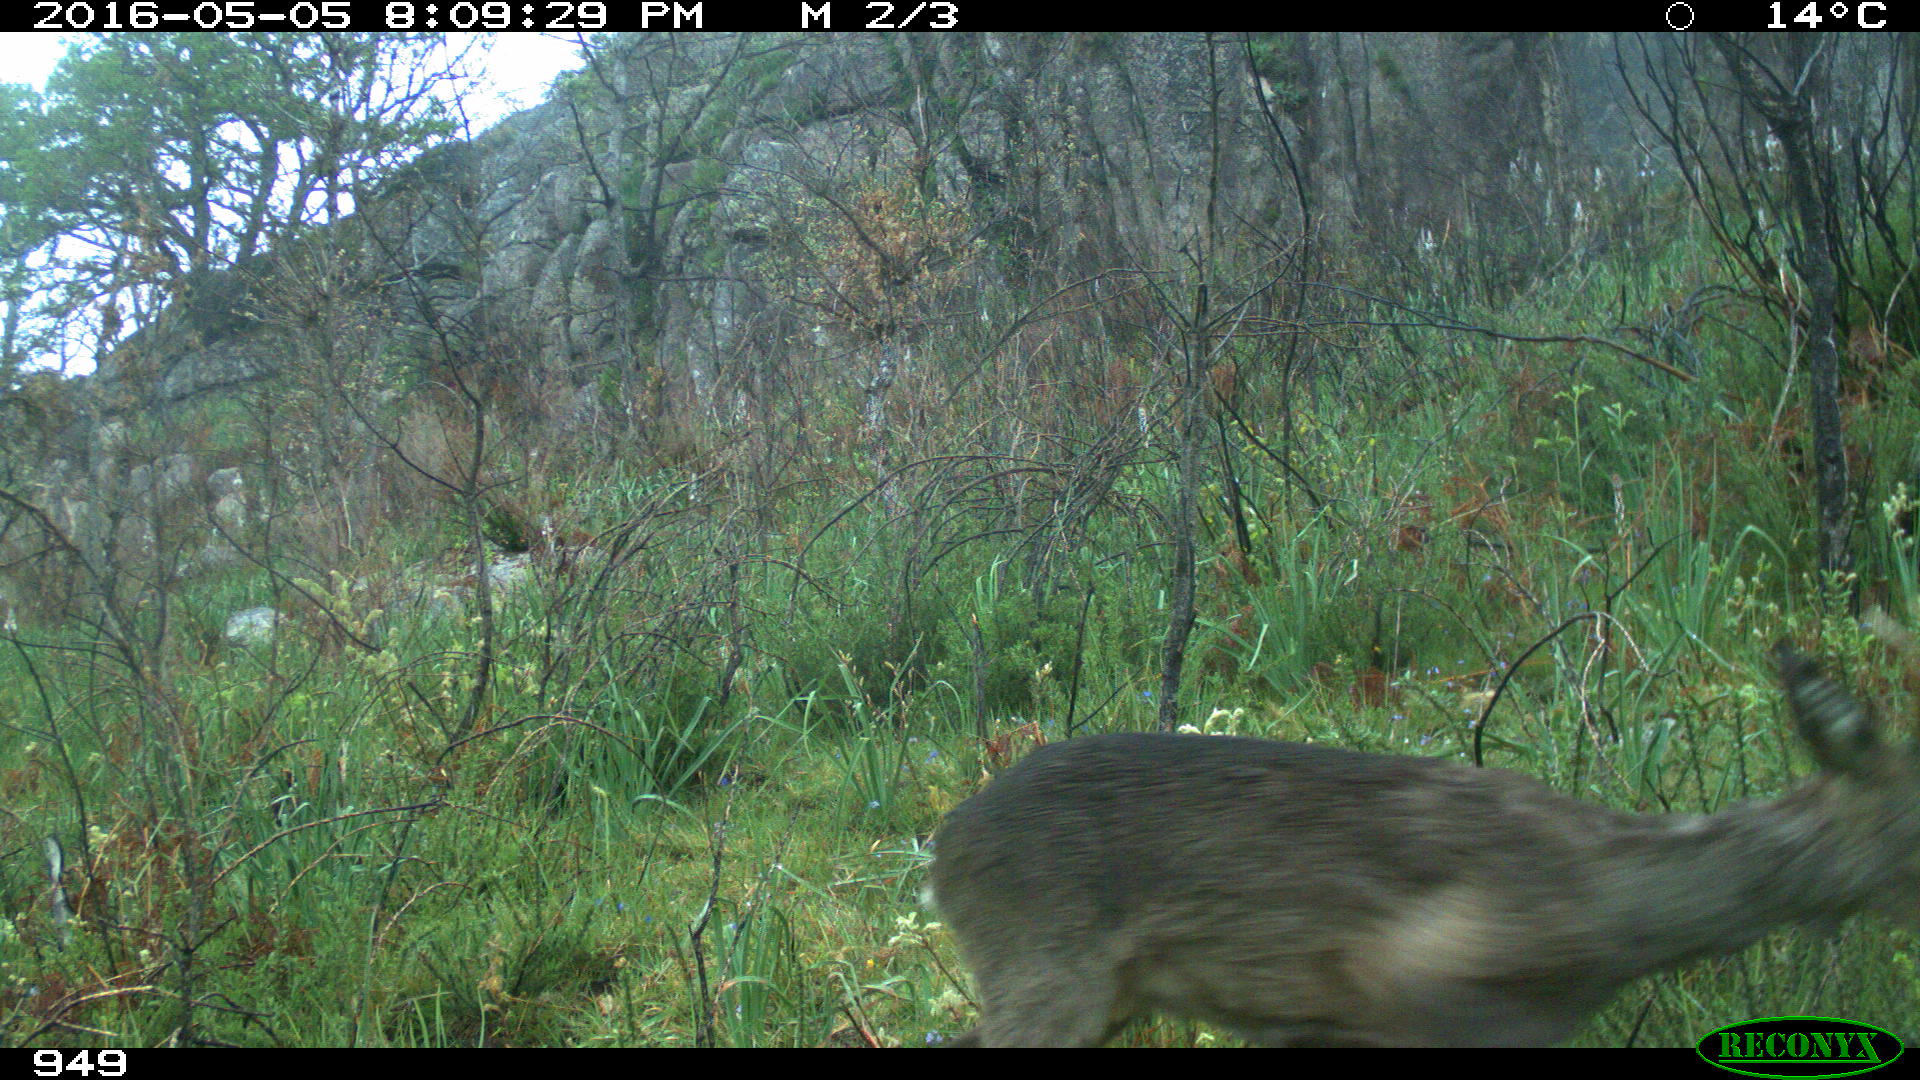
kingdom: Animalia
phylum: Chordata
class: Mammalia
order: Artiodactyla
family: Cervidae
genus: Capreolus
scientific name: Capreolus capreolus
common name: Western roe deer
